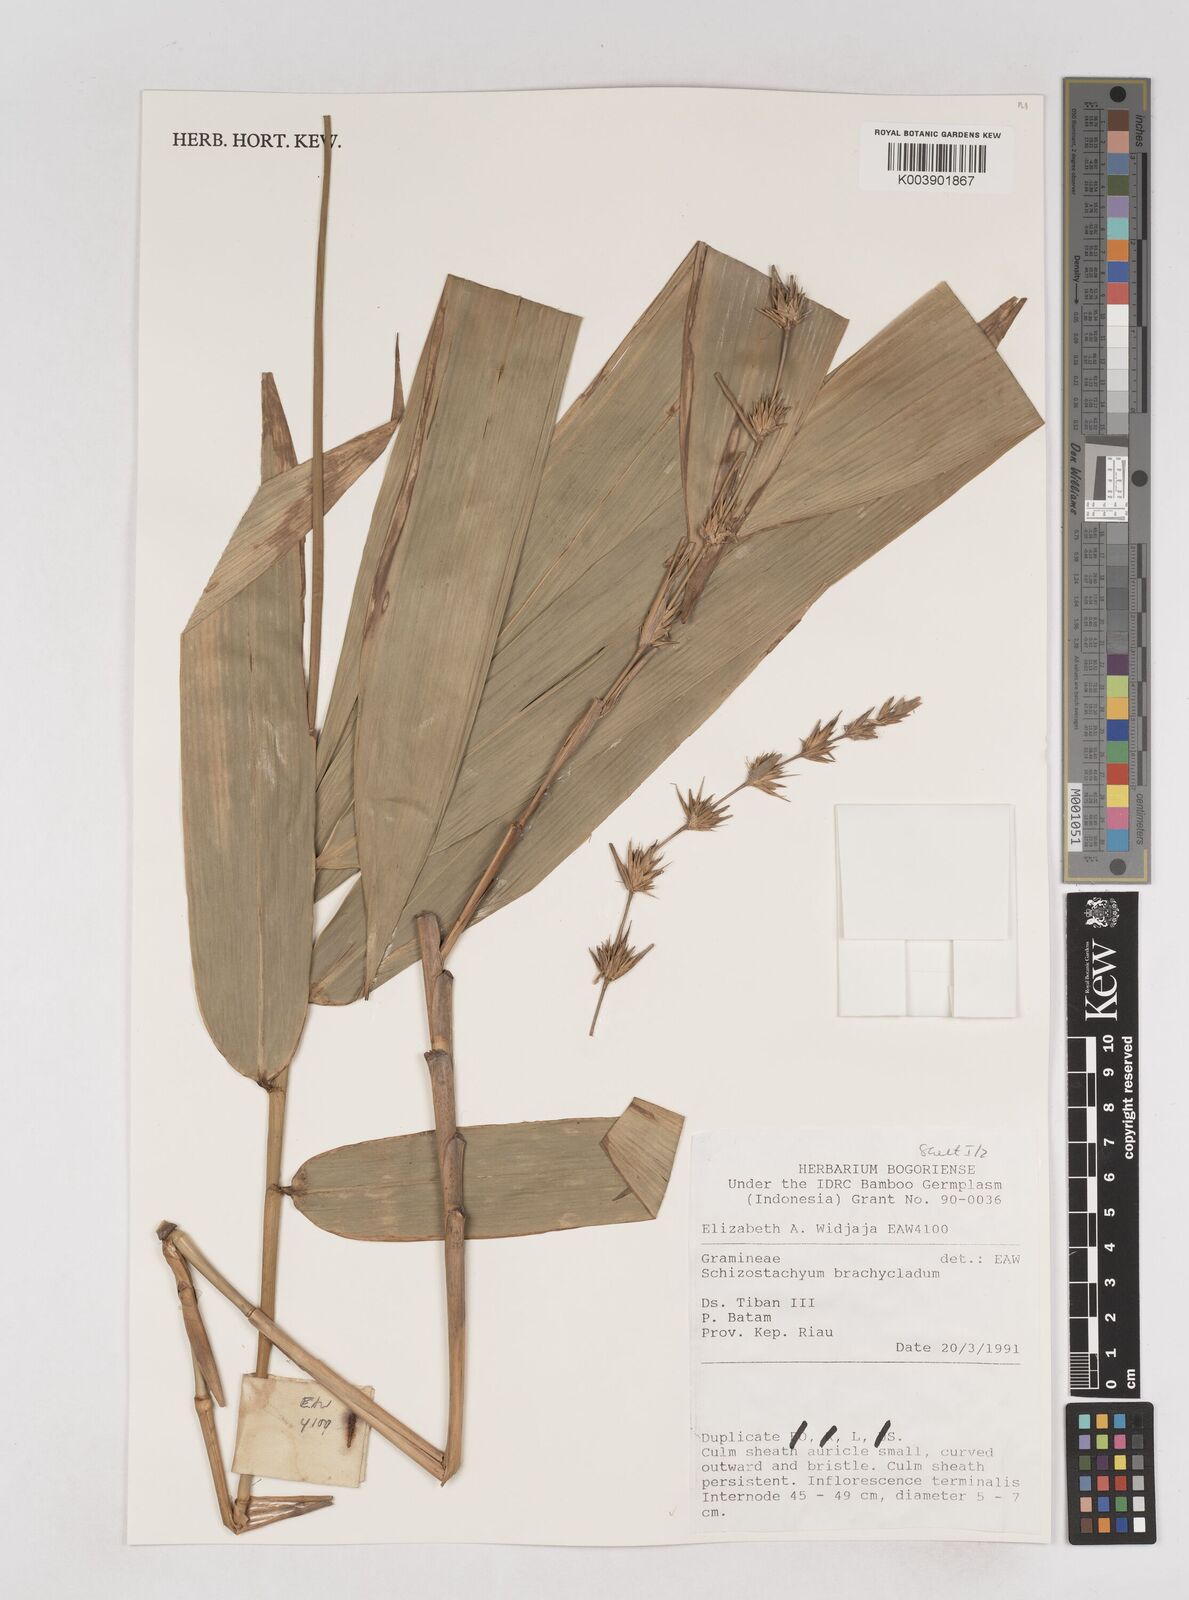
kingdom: Plantae
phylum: Tracheophyta
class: Liliopsida
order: Poales
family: Poaceae
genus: Schizostachyum
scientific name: Schizostachyum brachycladum
